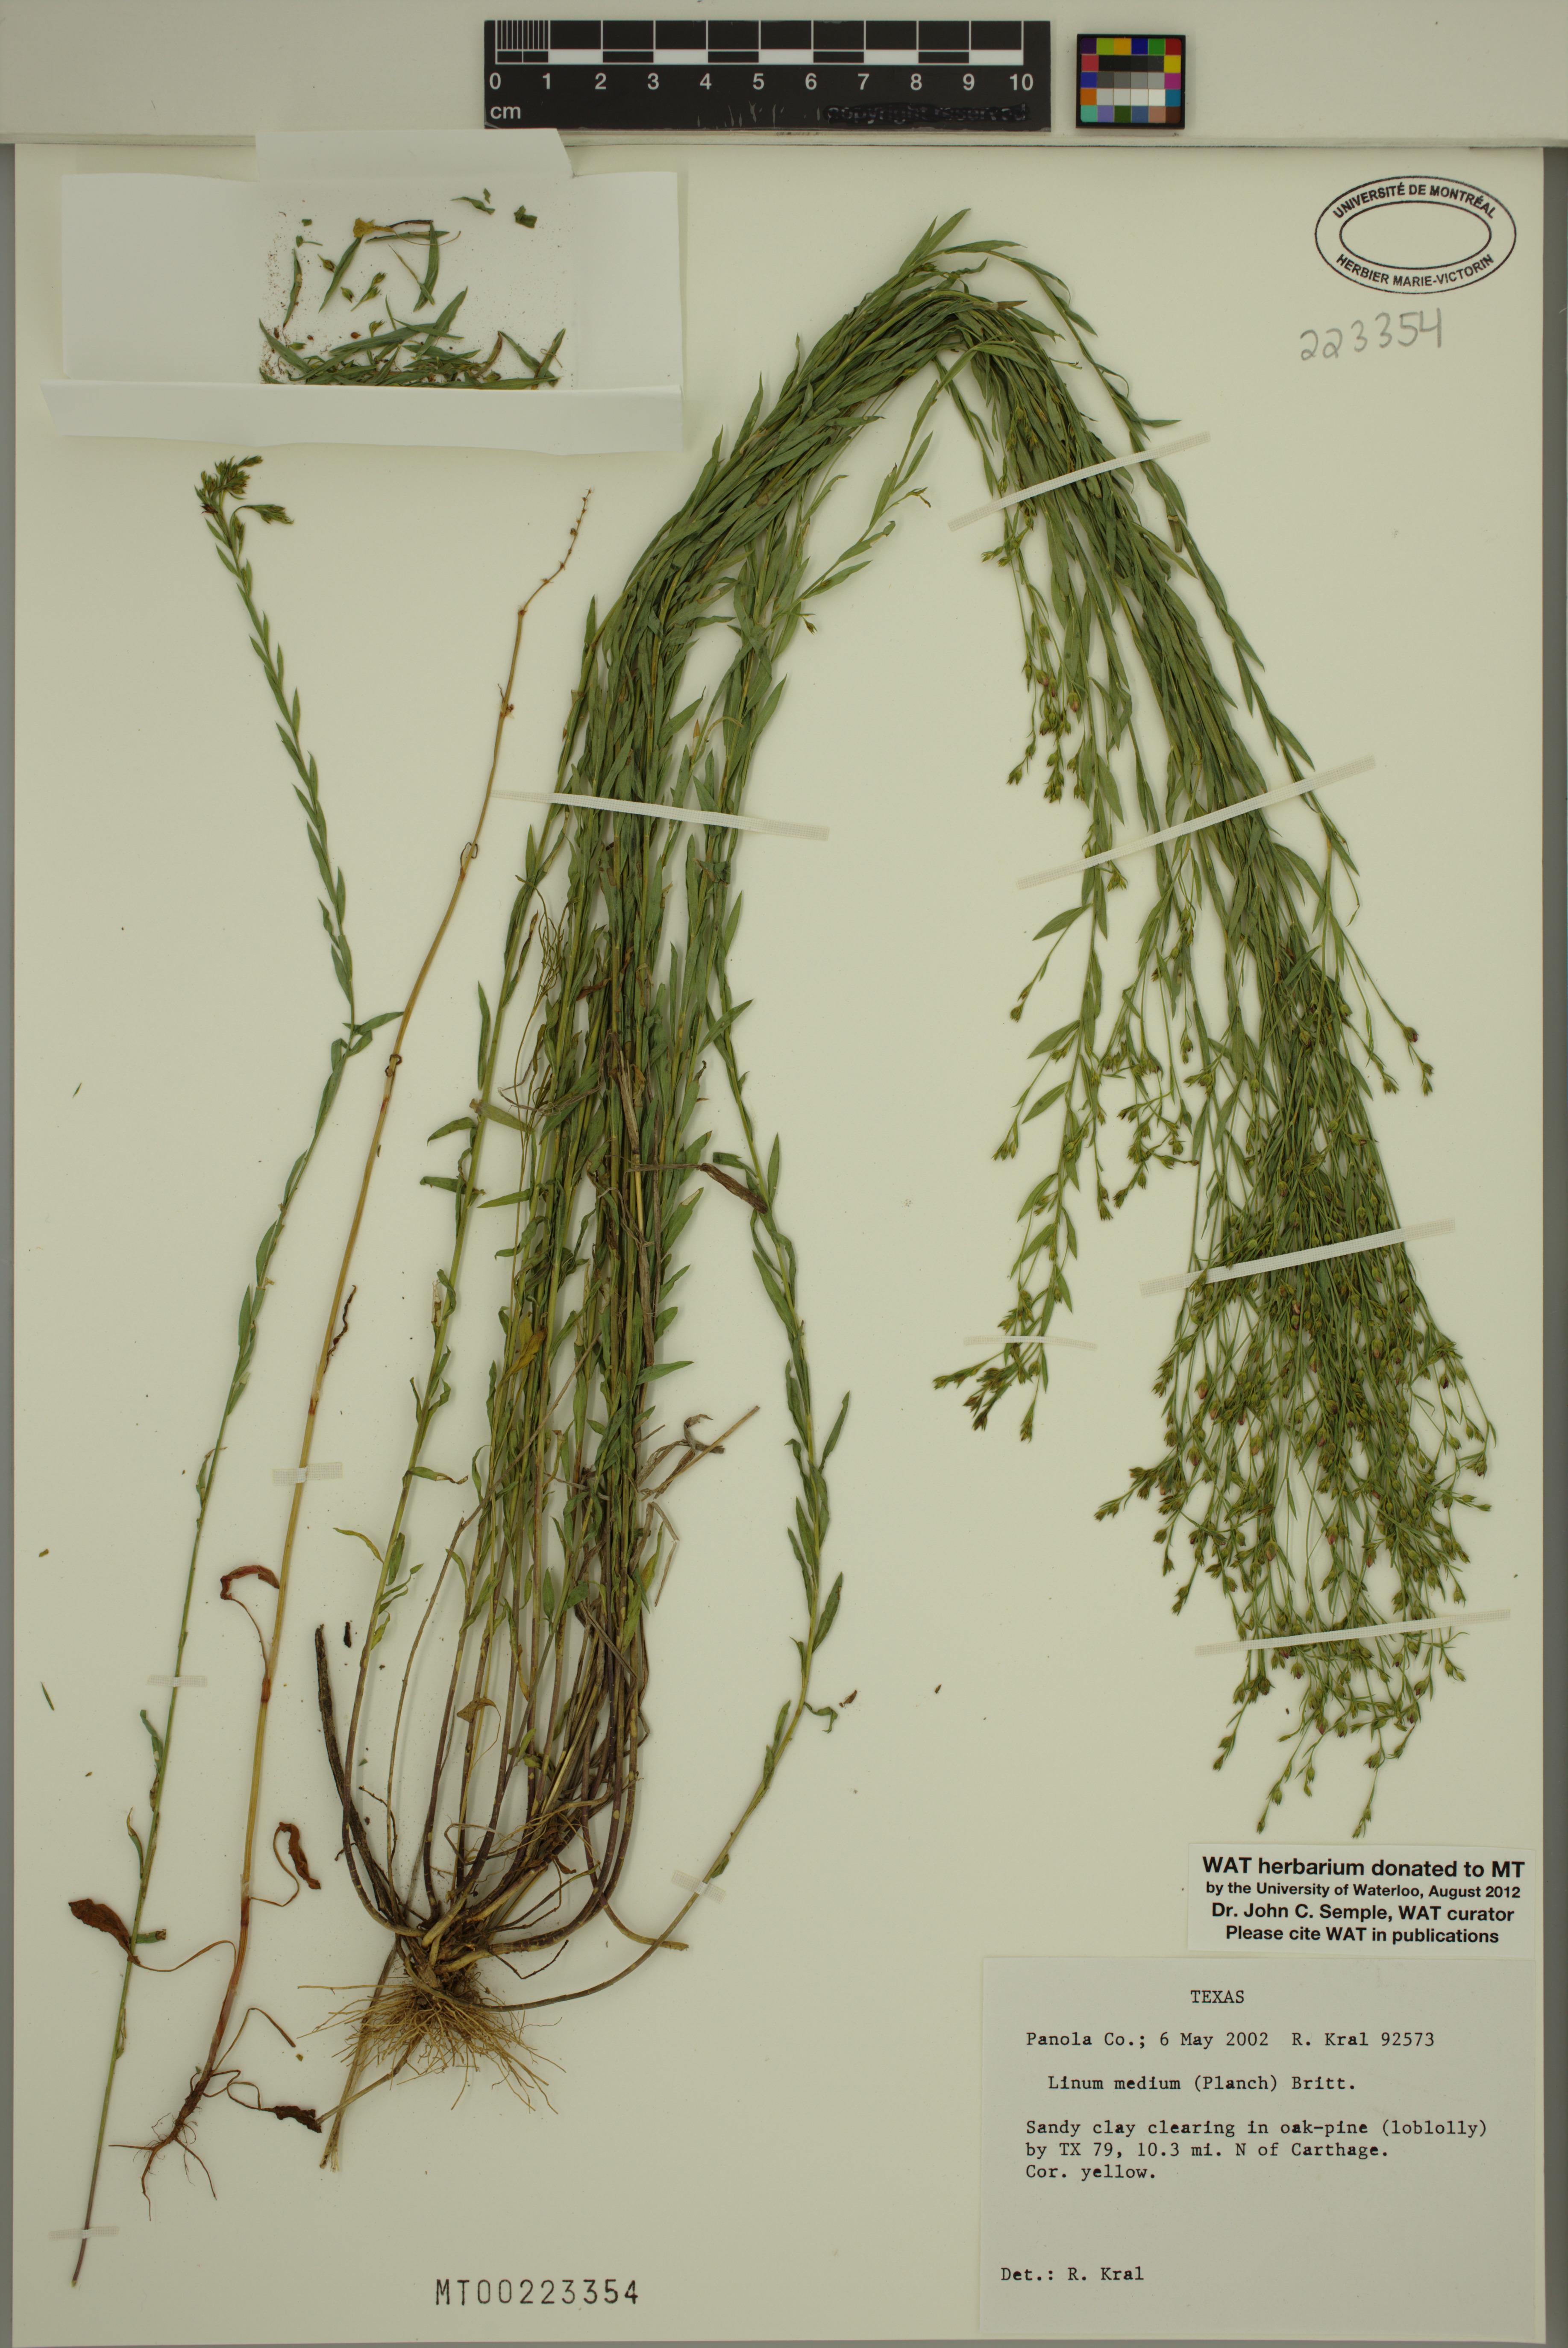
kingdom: Plantae
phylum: Tracheophyta
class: Magnoliopsida
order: Malpighiales
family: Linaceae
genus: Linum
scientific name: Linum medium
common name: Stiff yellow flax
